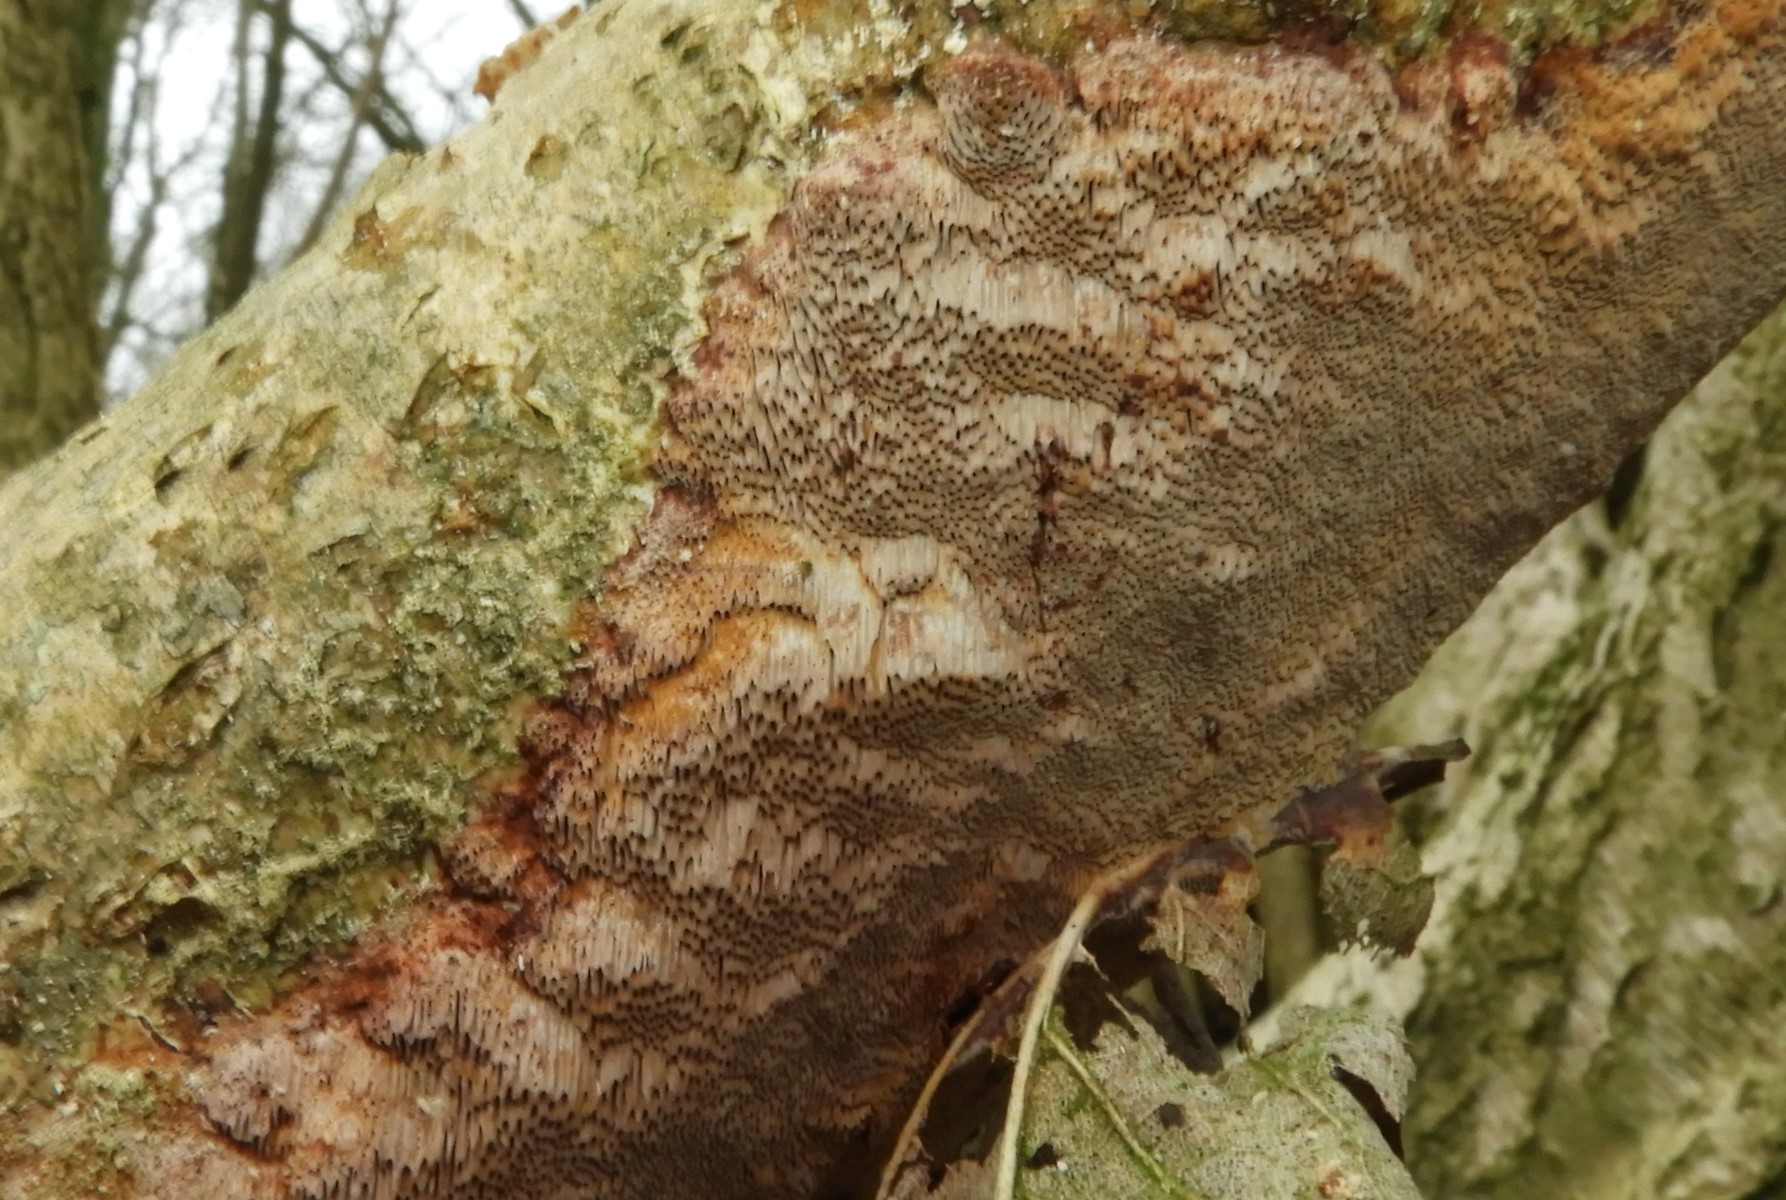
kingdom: Fungi
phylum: Basidiomycota
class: Agaricomycetes
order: Hymenochaetales
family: Hymenochaetaceae
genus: Fuscoporia
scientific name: Fuscoporia
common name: Ildporesvamp
